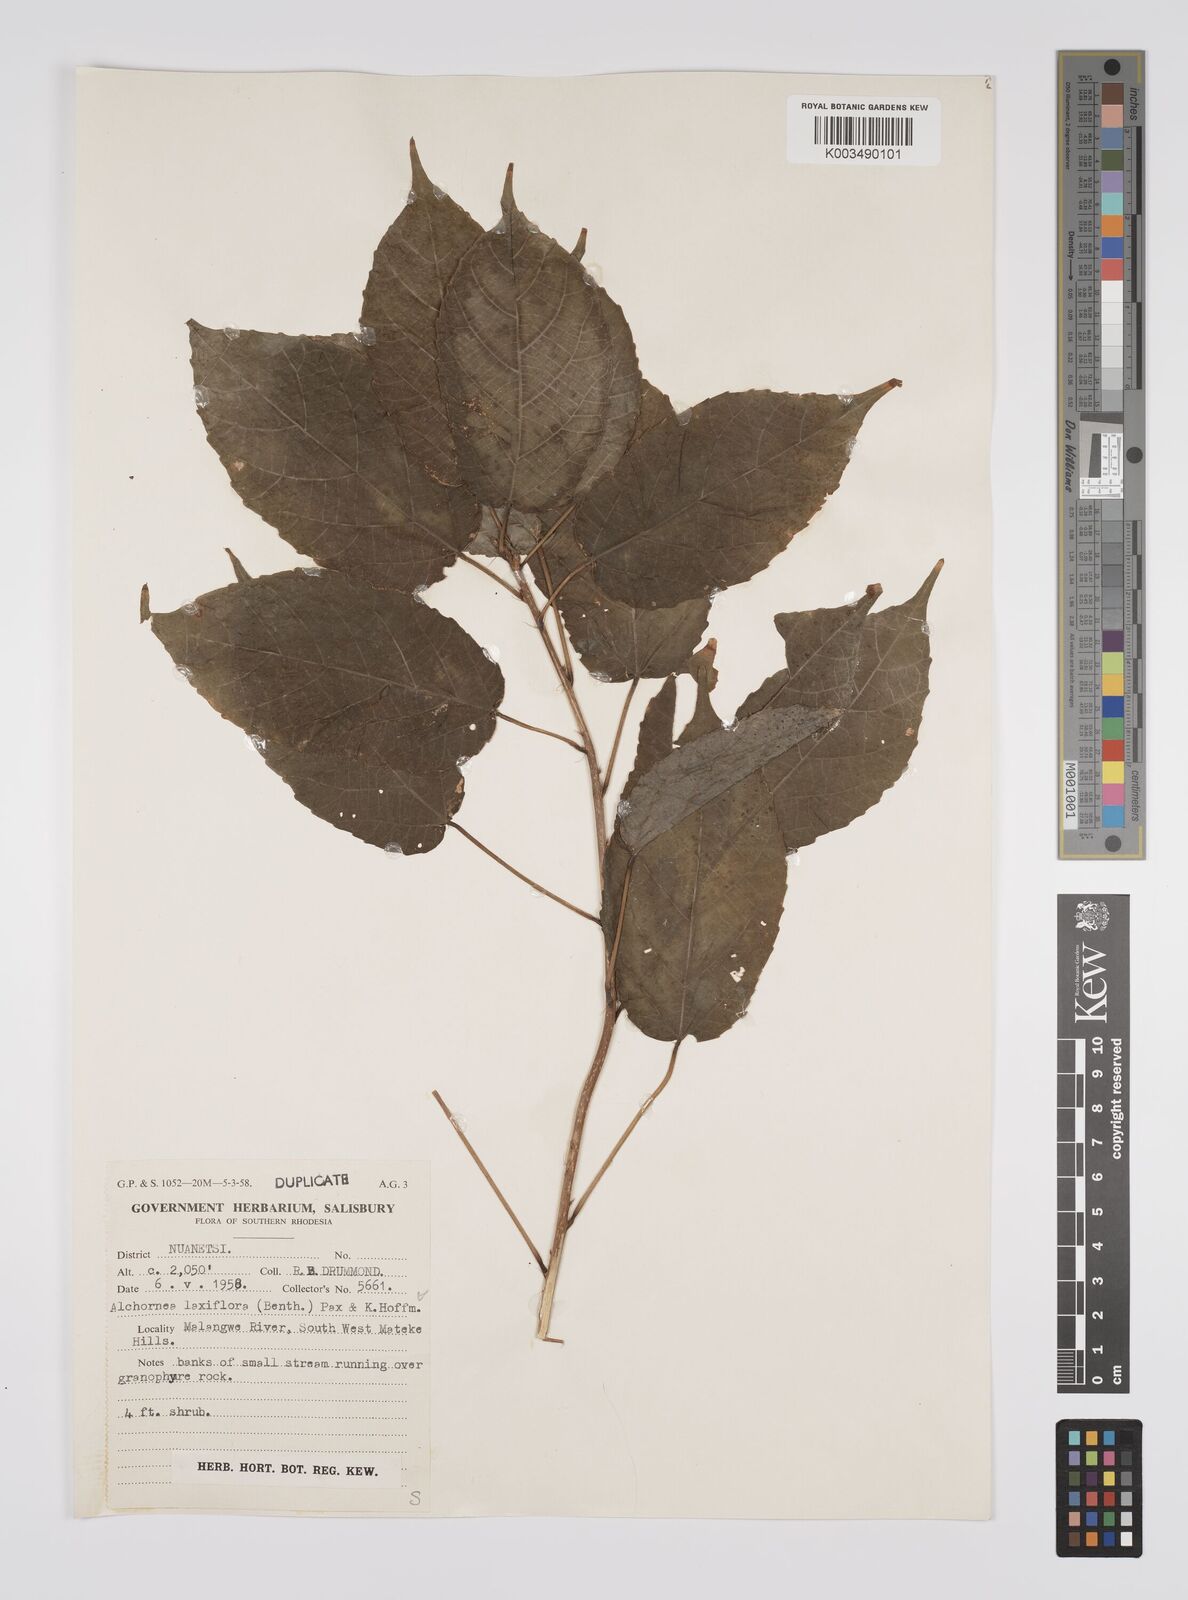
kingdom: Plantae
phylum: Tracheophyta
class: Magnoliopsida
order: Malpighiales
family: Euphorbiaceae
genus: Alchornea
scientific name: Alchornea laxiflora
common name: Lowveld bead-string
